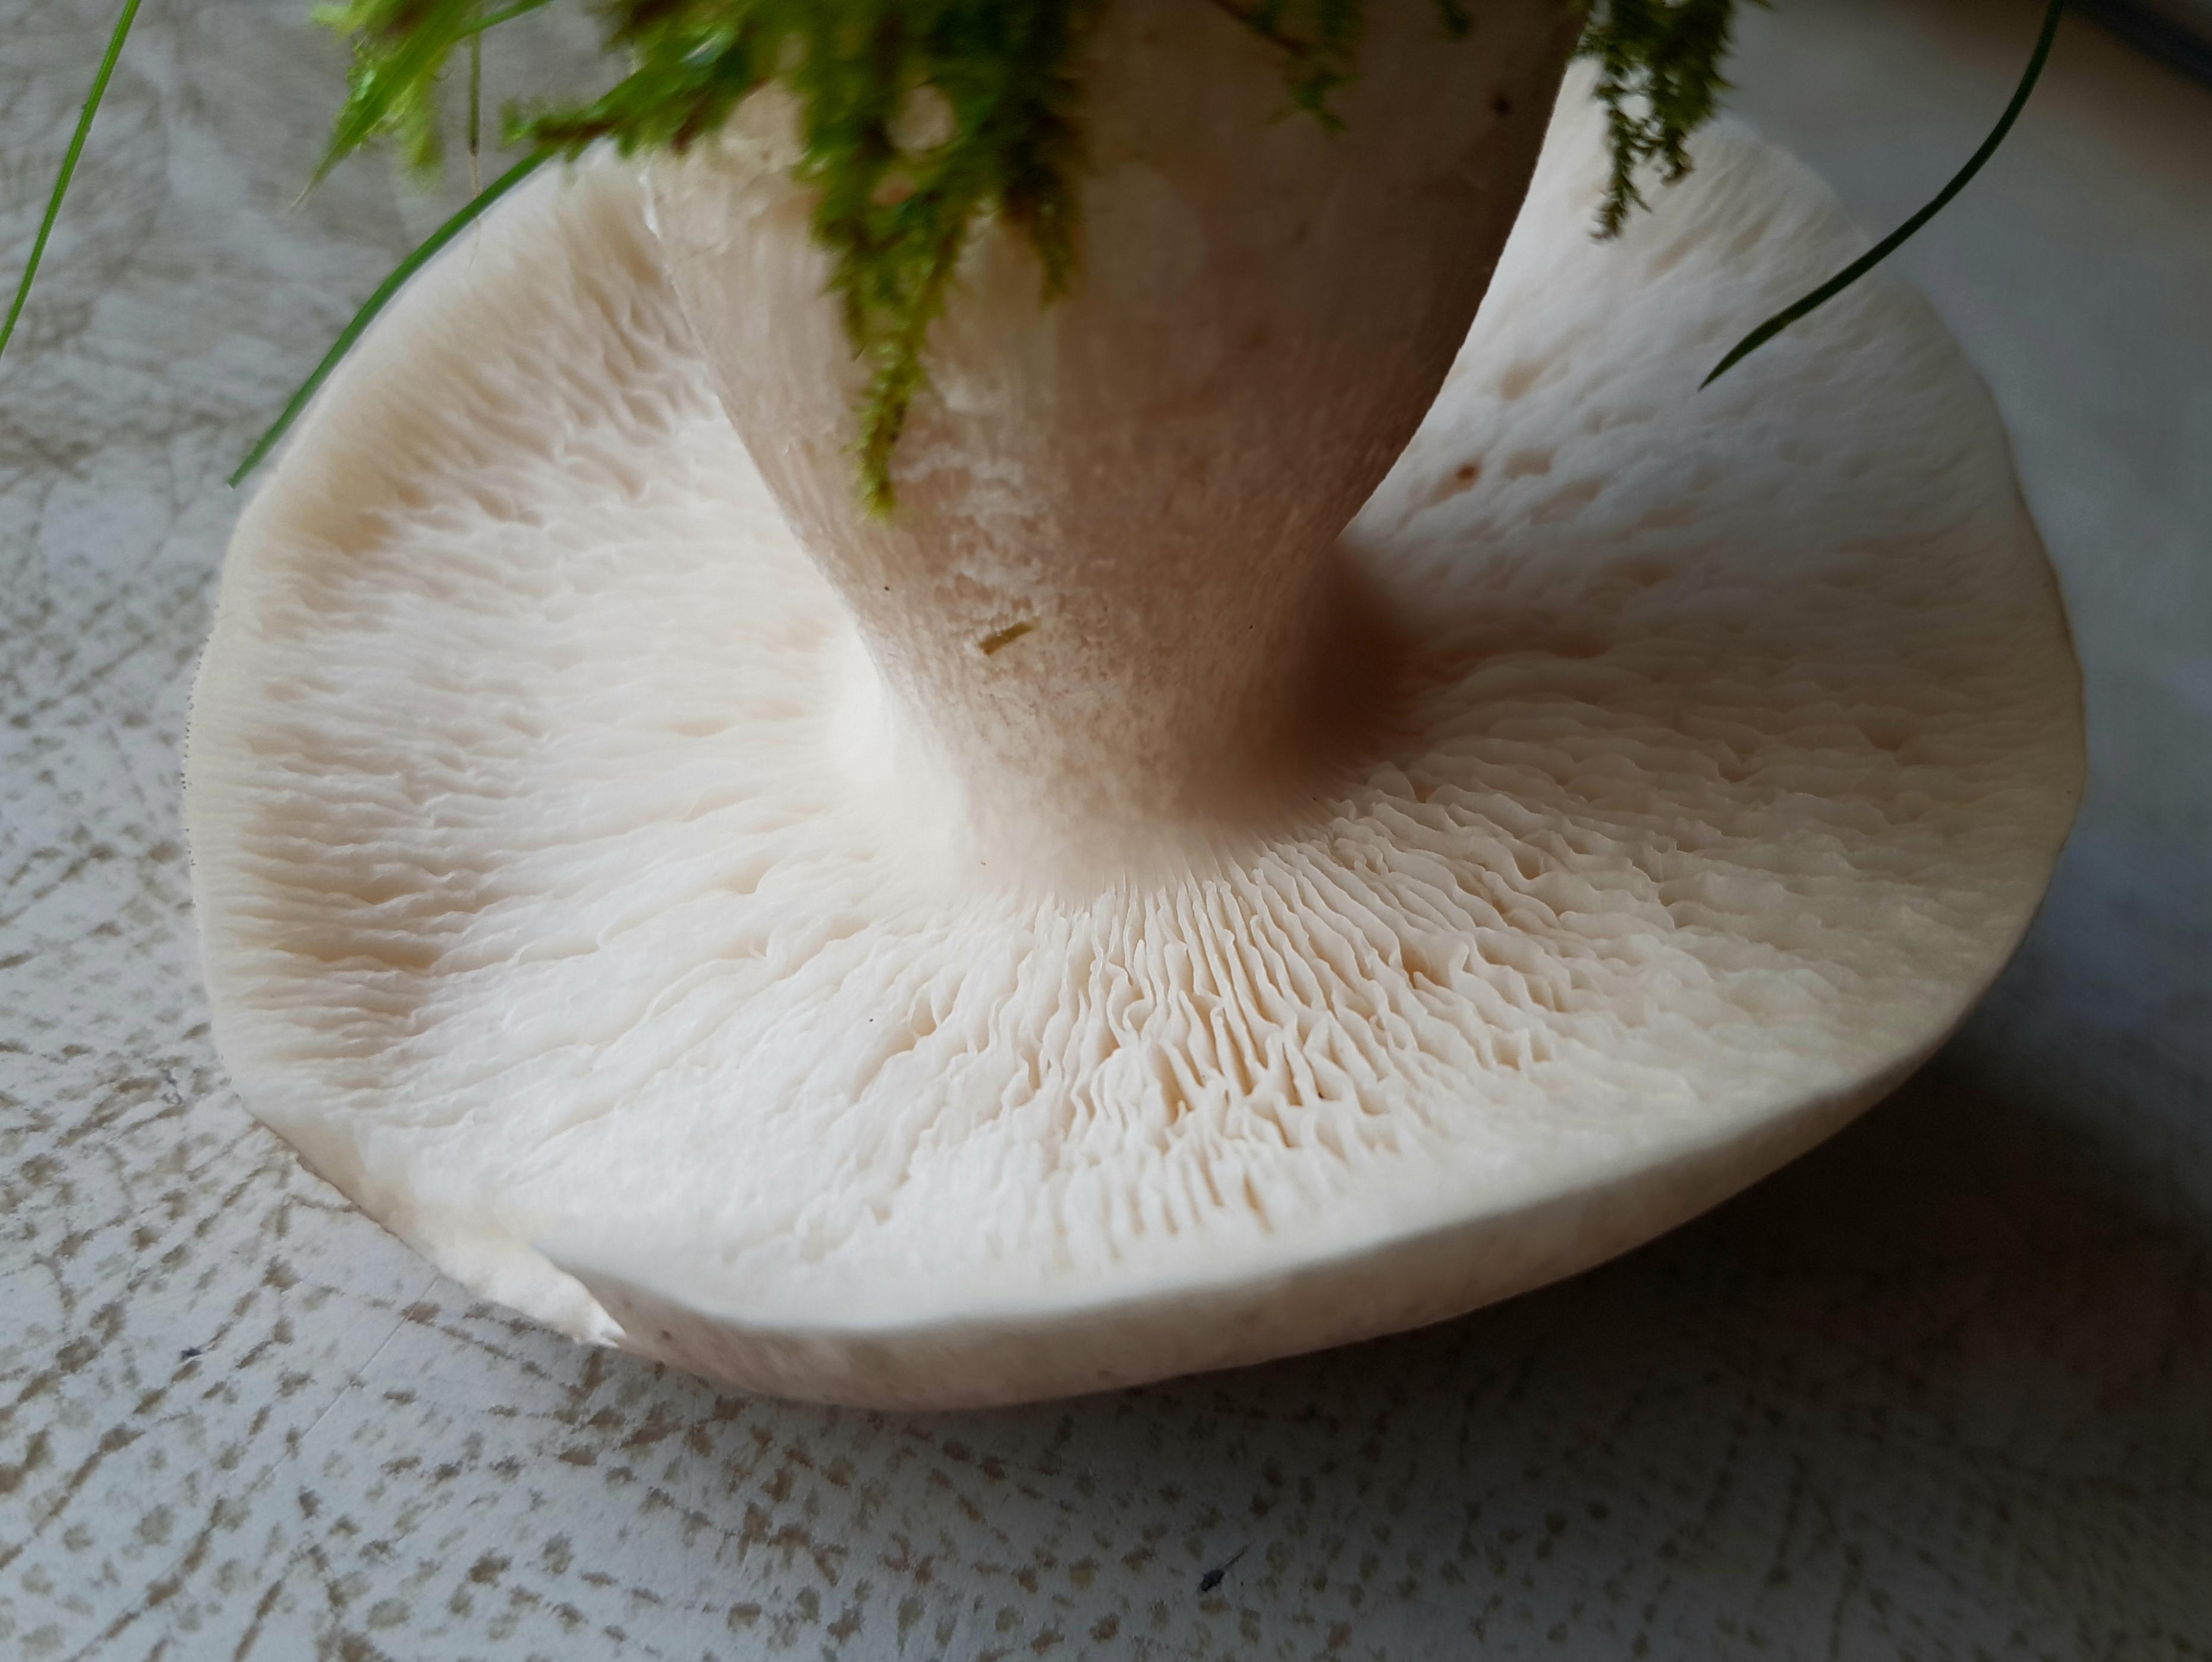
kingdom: Fungi
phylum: Basidiomycota
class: Agaricomycetes
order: Agaricales
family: Tricholomataceae
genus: Clitocybe
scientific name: Clitocybe nebularis
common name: tåge-tragthat
